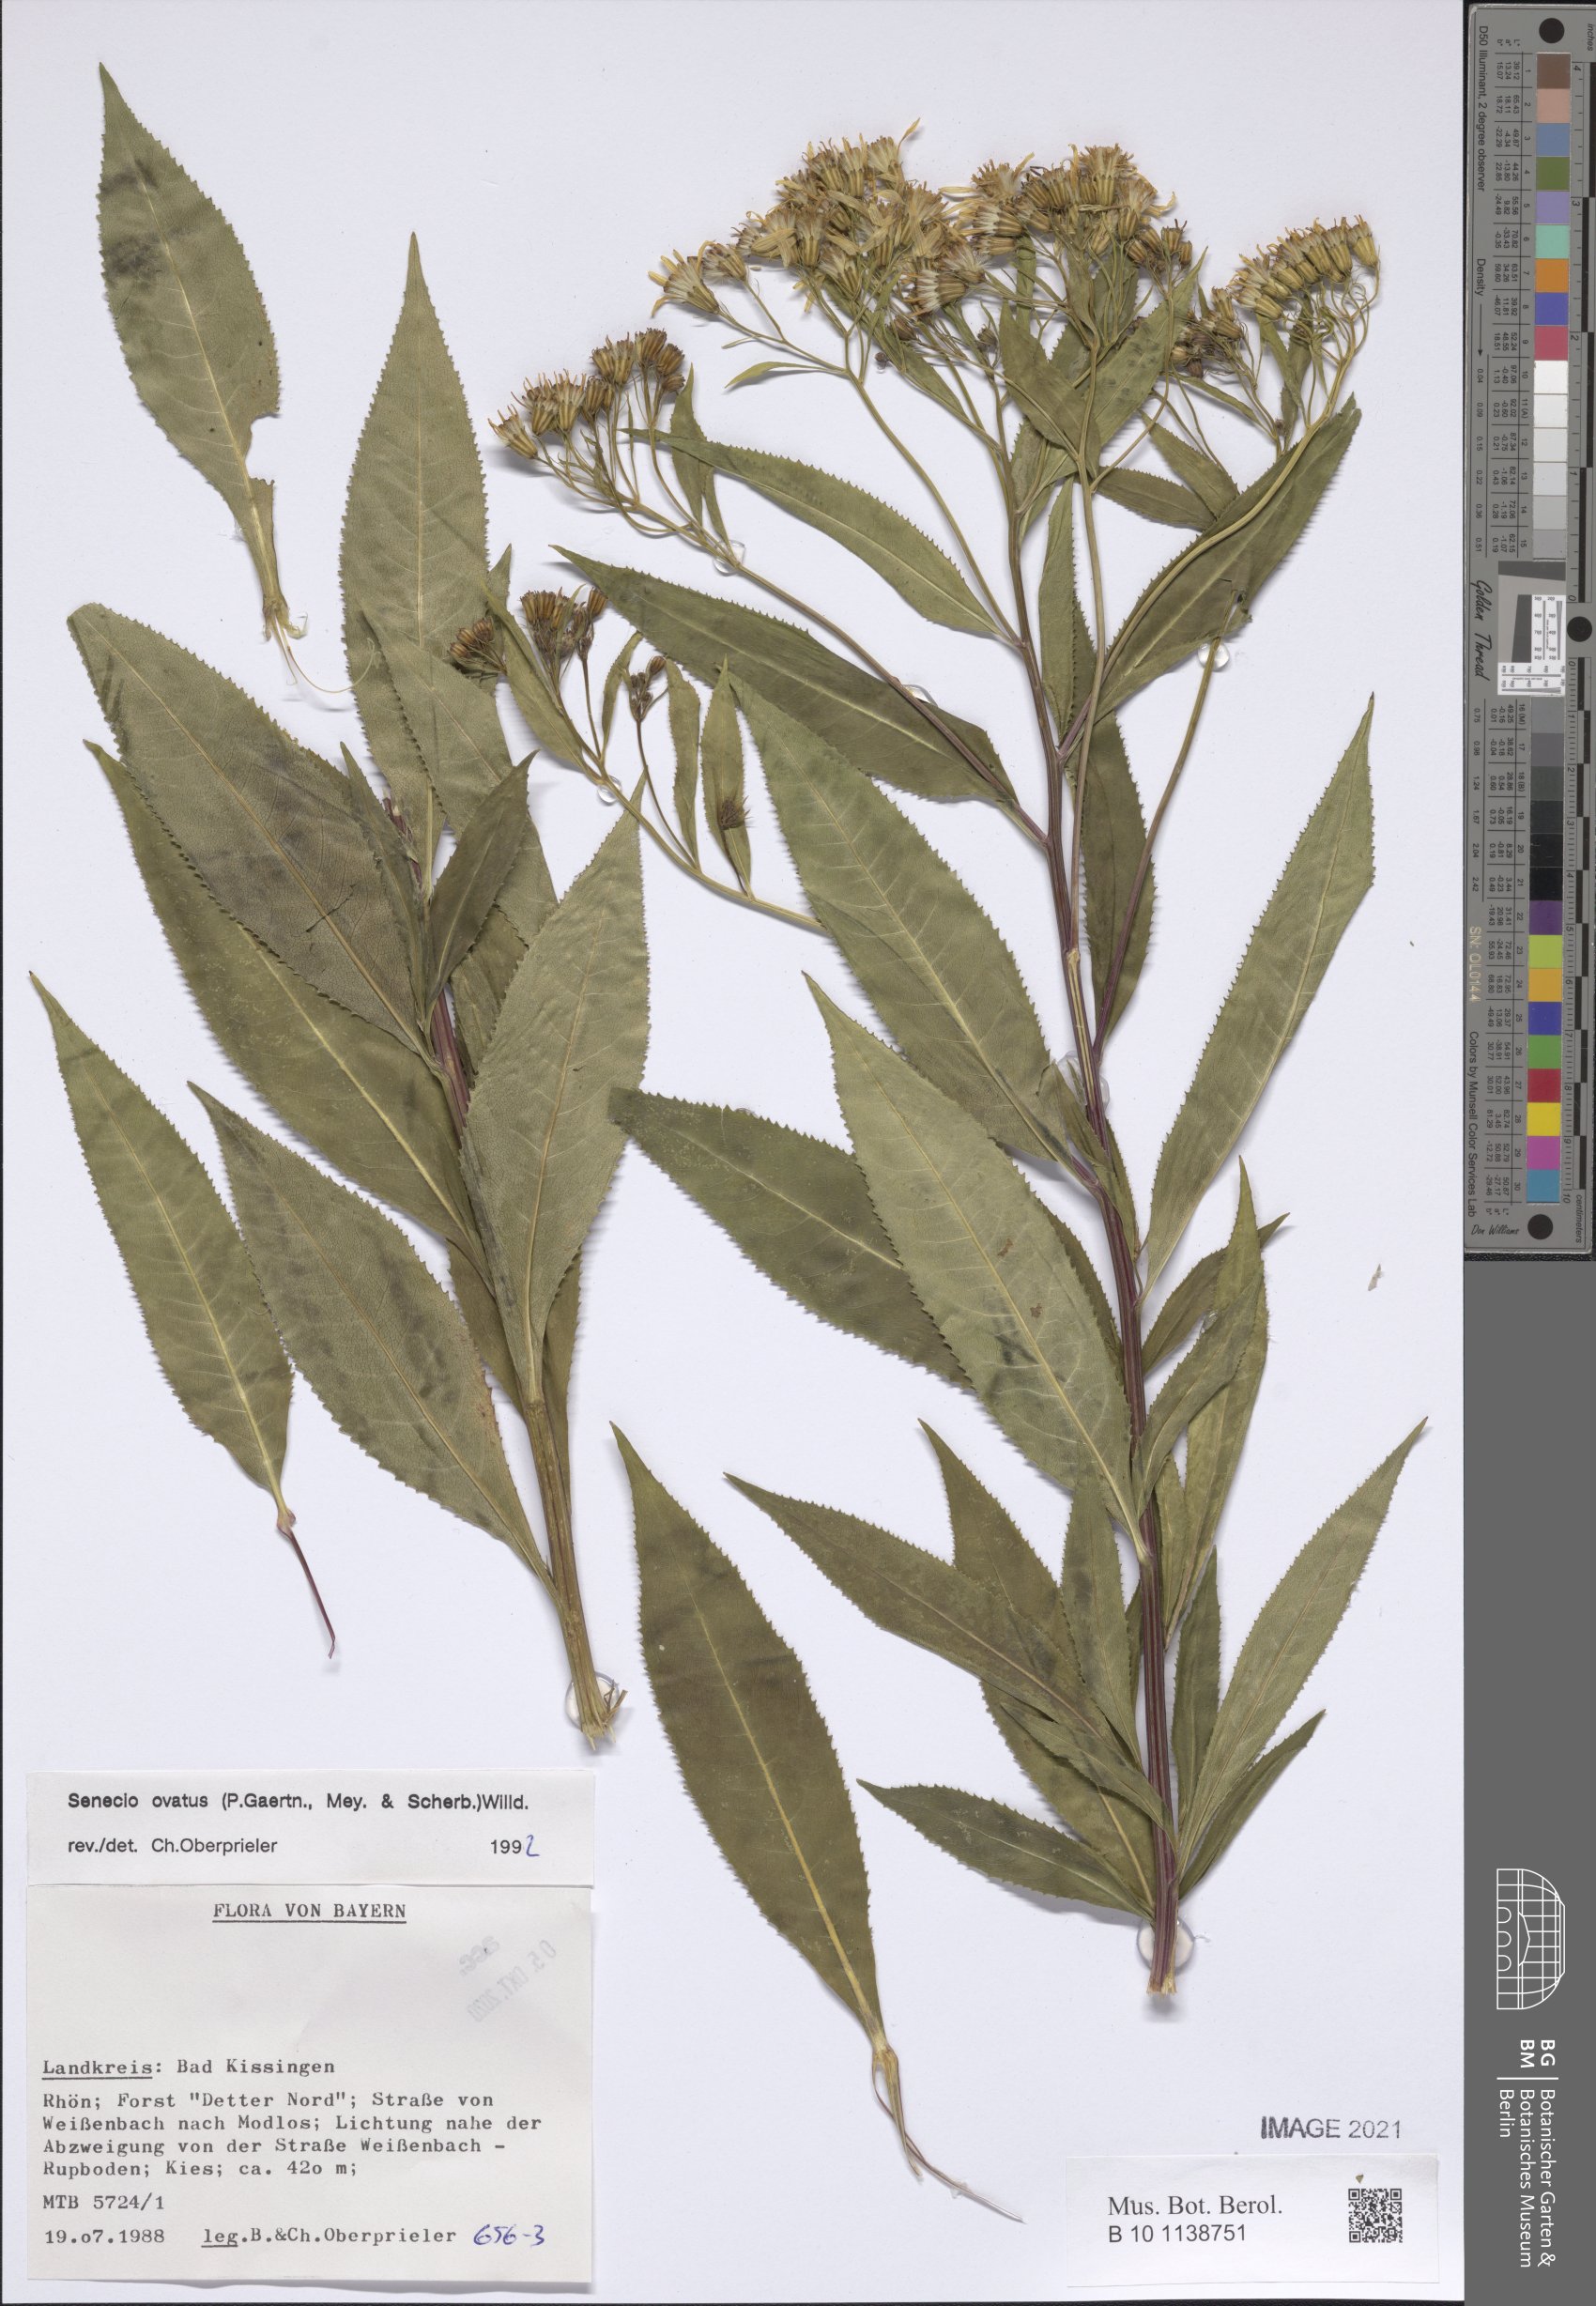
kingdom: Plantae
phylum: Tracheophyta
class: Magnoliopsida
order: Asterales
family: Asteraceae
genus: Senecio
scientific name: Senecio ovatus
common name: Wood ragwort
